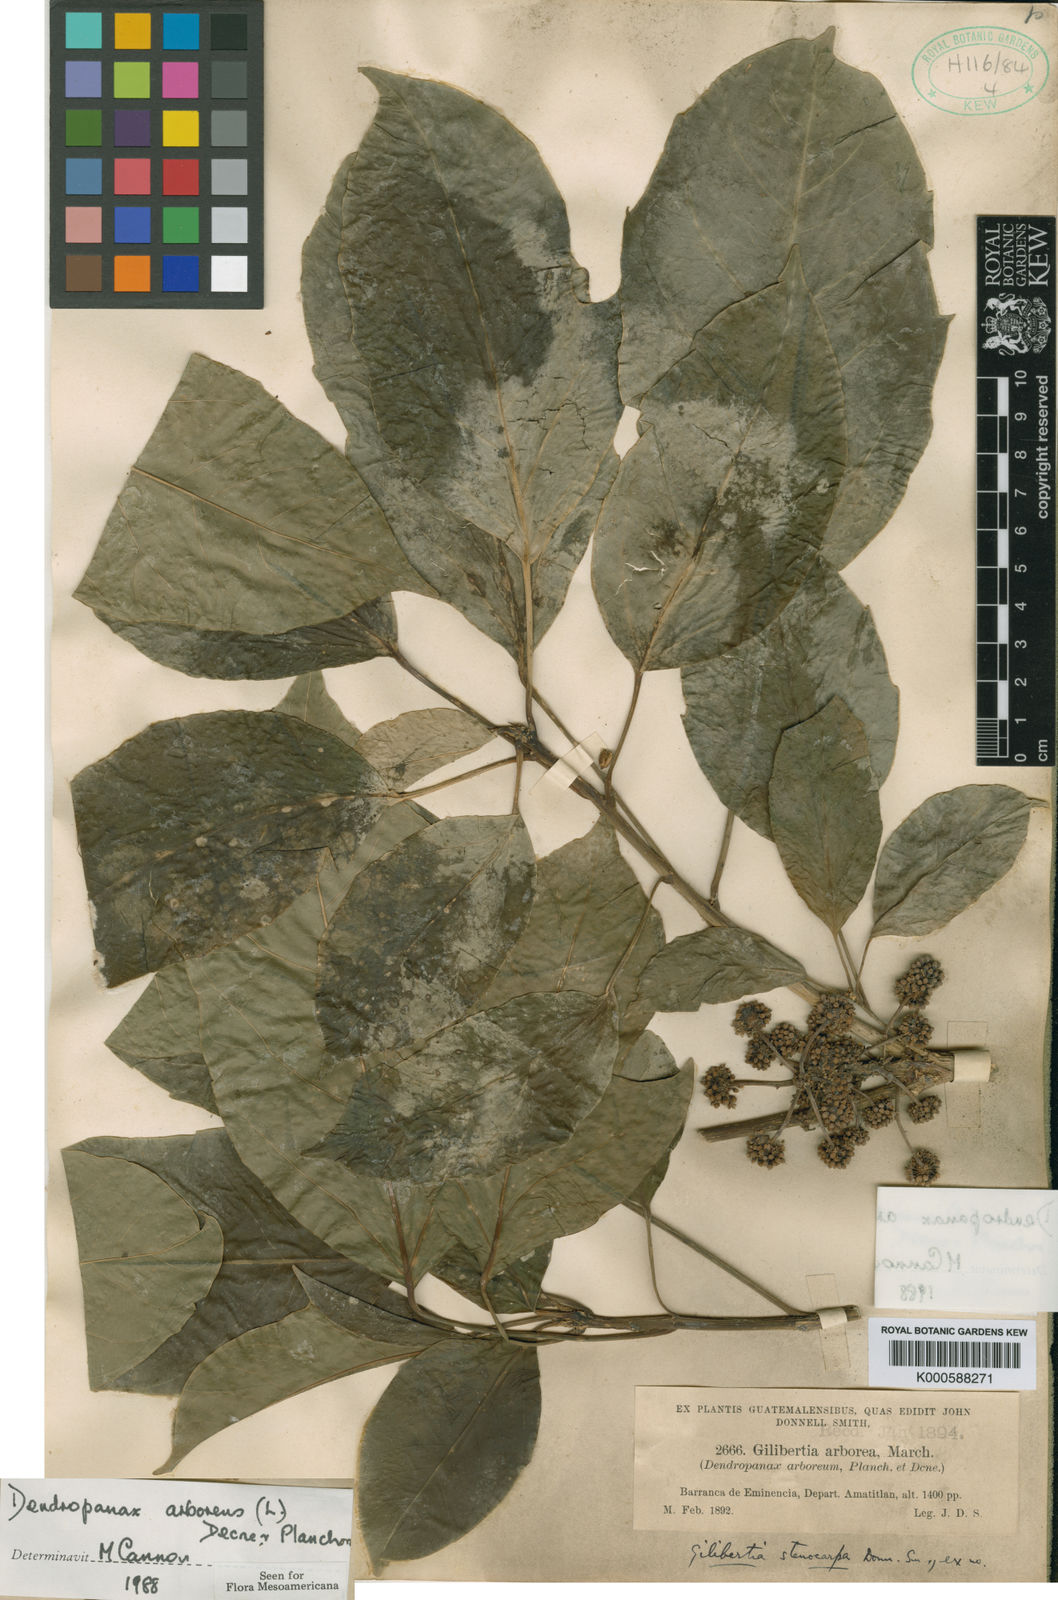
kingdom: Plantae
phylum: Tracheophyta
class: Magnoliopsida
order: Apiales
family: Araliaceae
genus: Dendropanax
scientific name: Dendropanax arboreus
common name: Potato-wood
